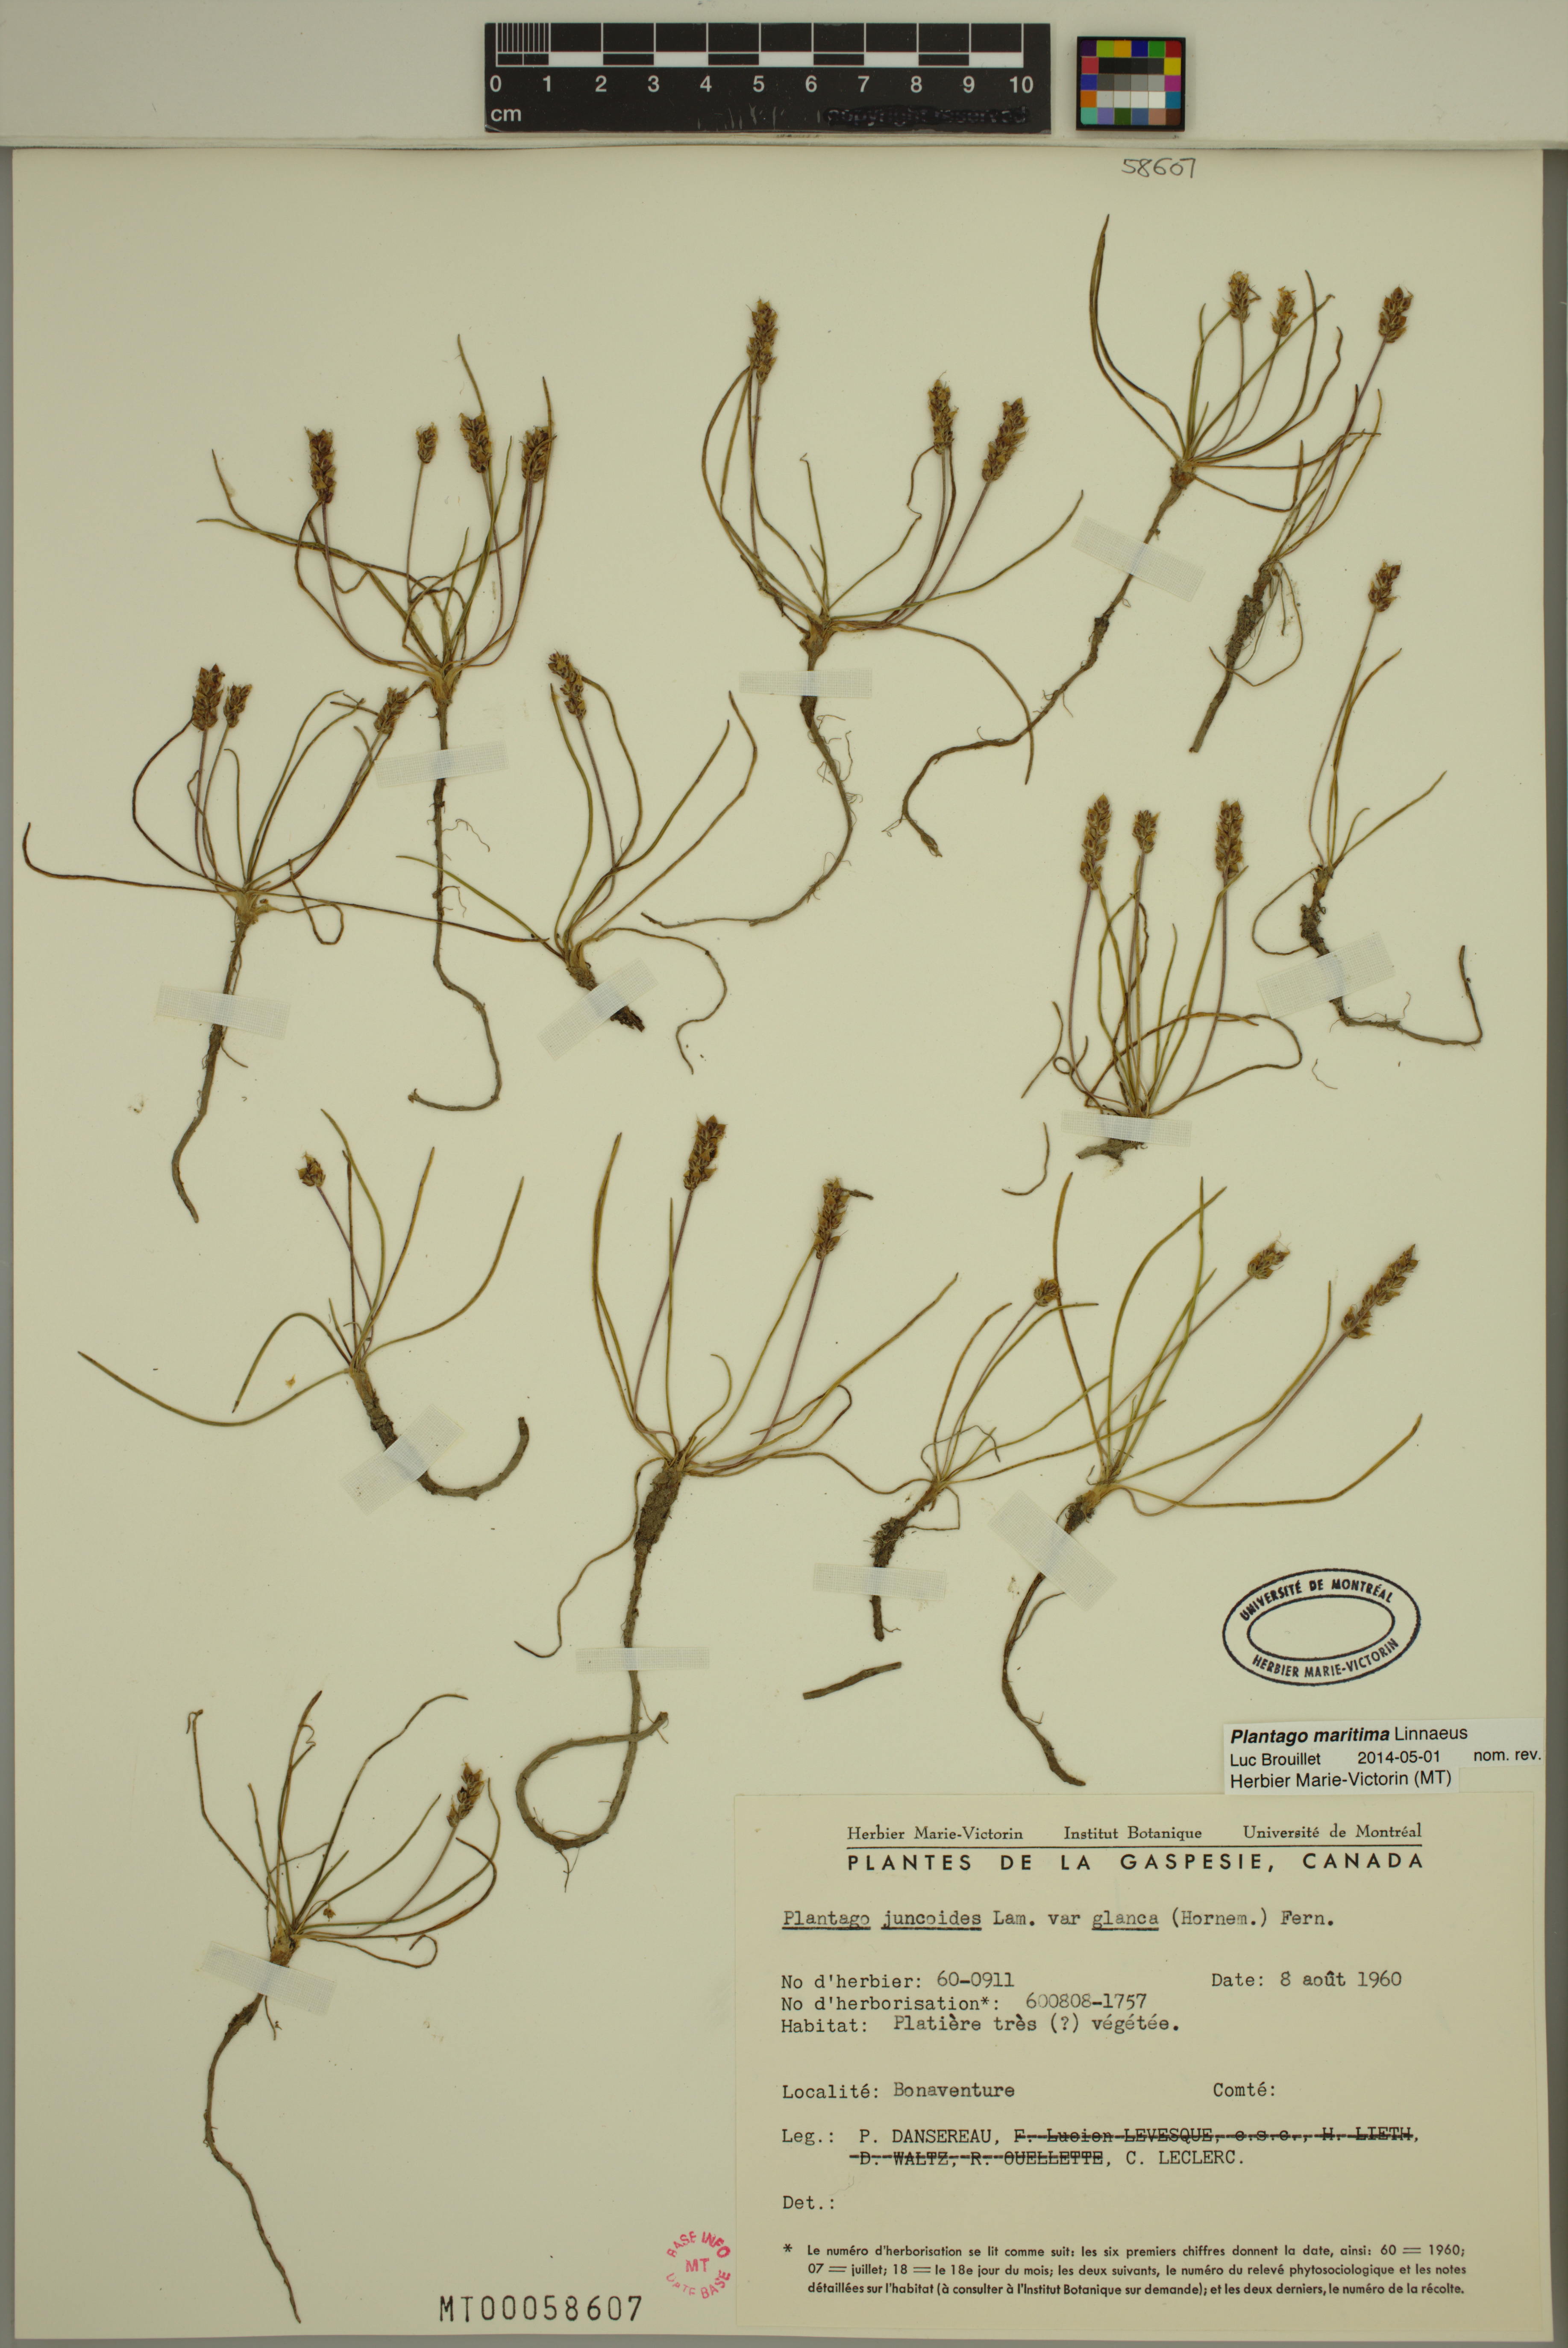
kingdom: Plantae
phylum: Tracheophyta
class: Magnoliopsida
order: Lamiales
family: Plantaginaceae
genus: Plantago
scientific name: Plantago maritima
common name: Sea plantain
